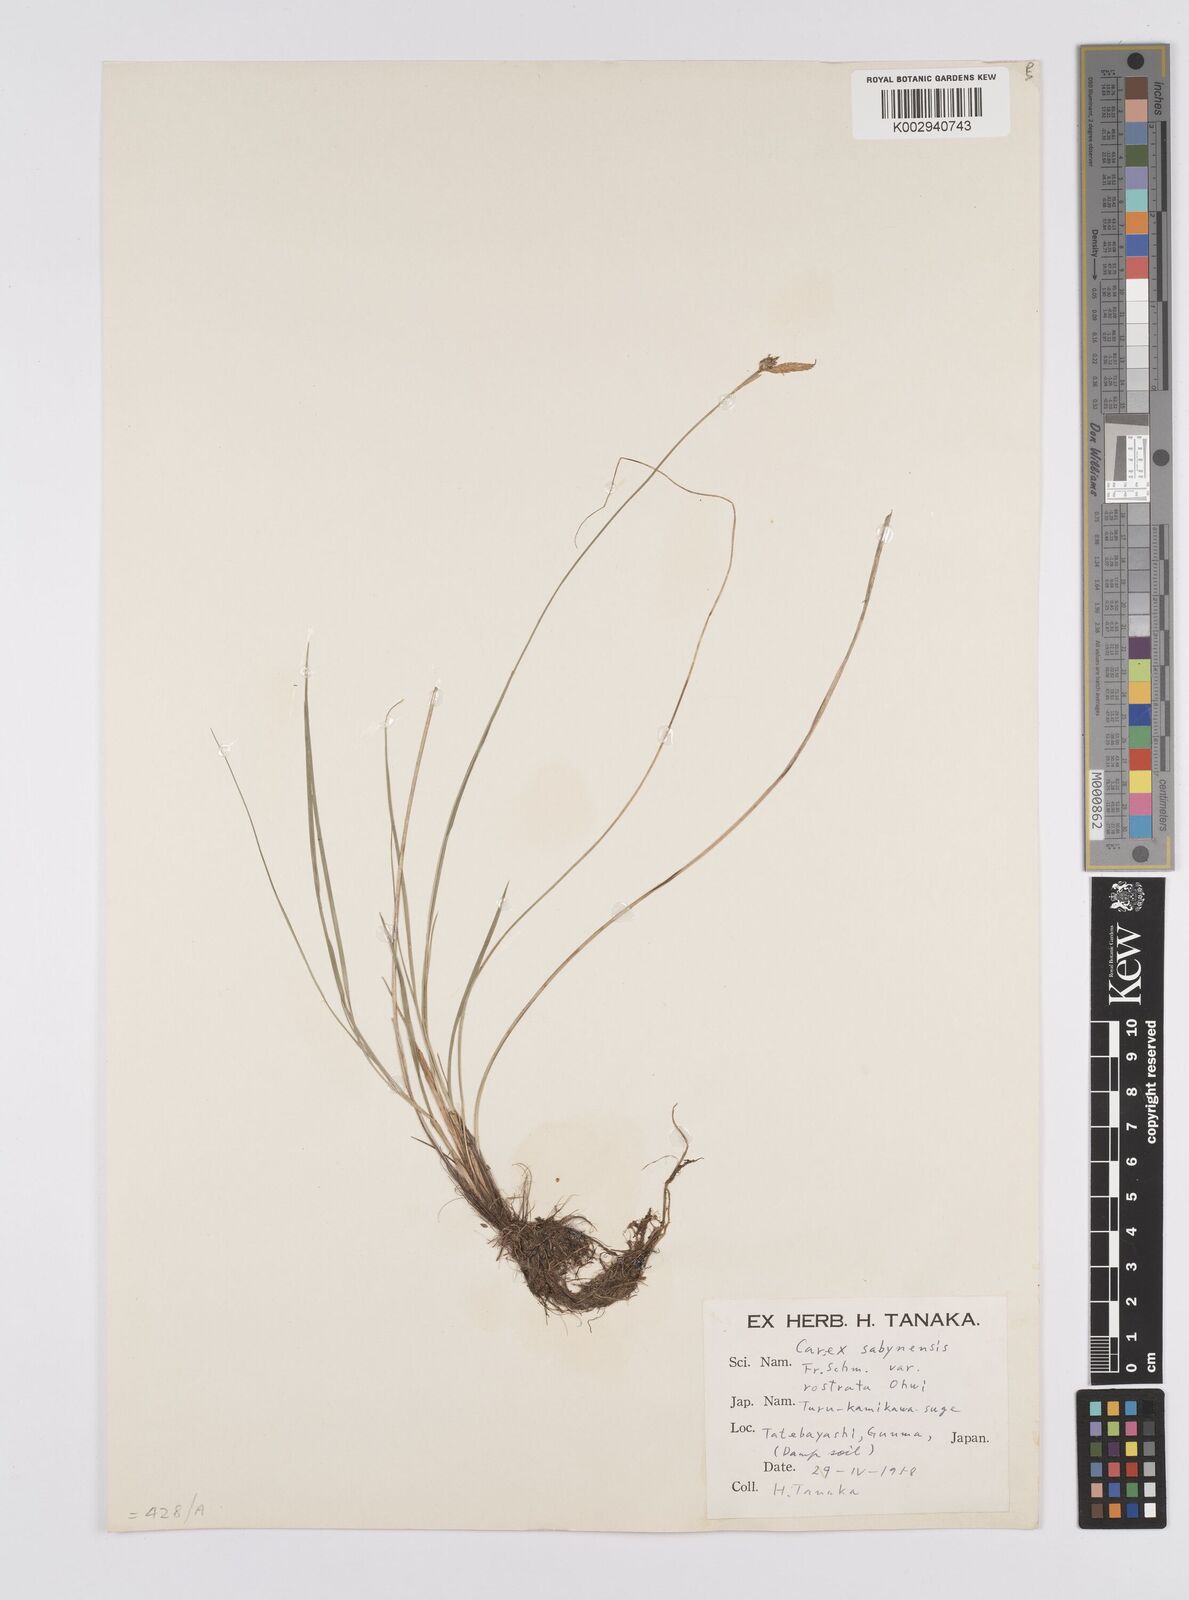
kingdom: Plantae
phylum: Tracheophyta
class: Liliopsida
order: Poales
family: Cyperaceae
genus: Carex
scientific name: Carex umbrosa
